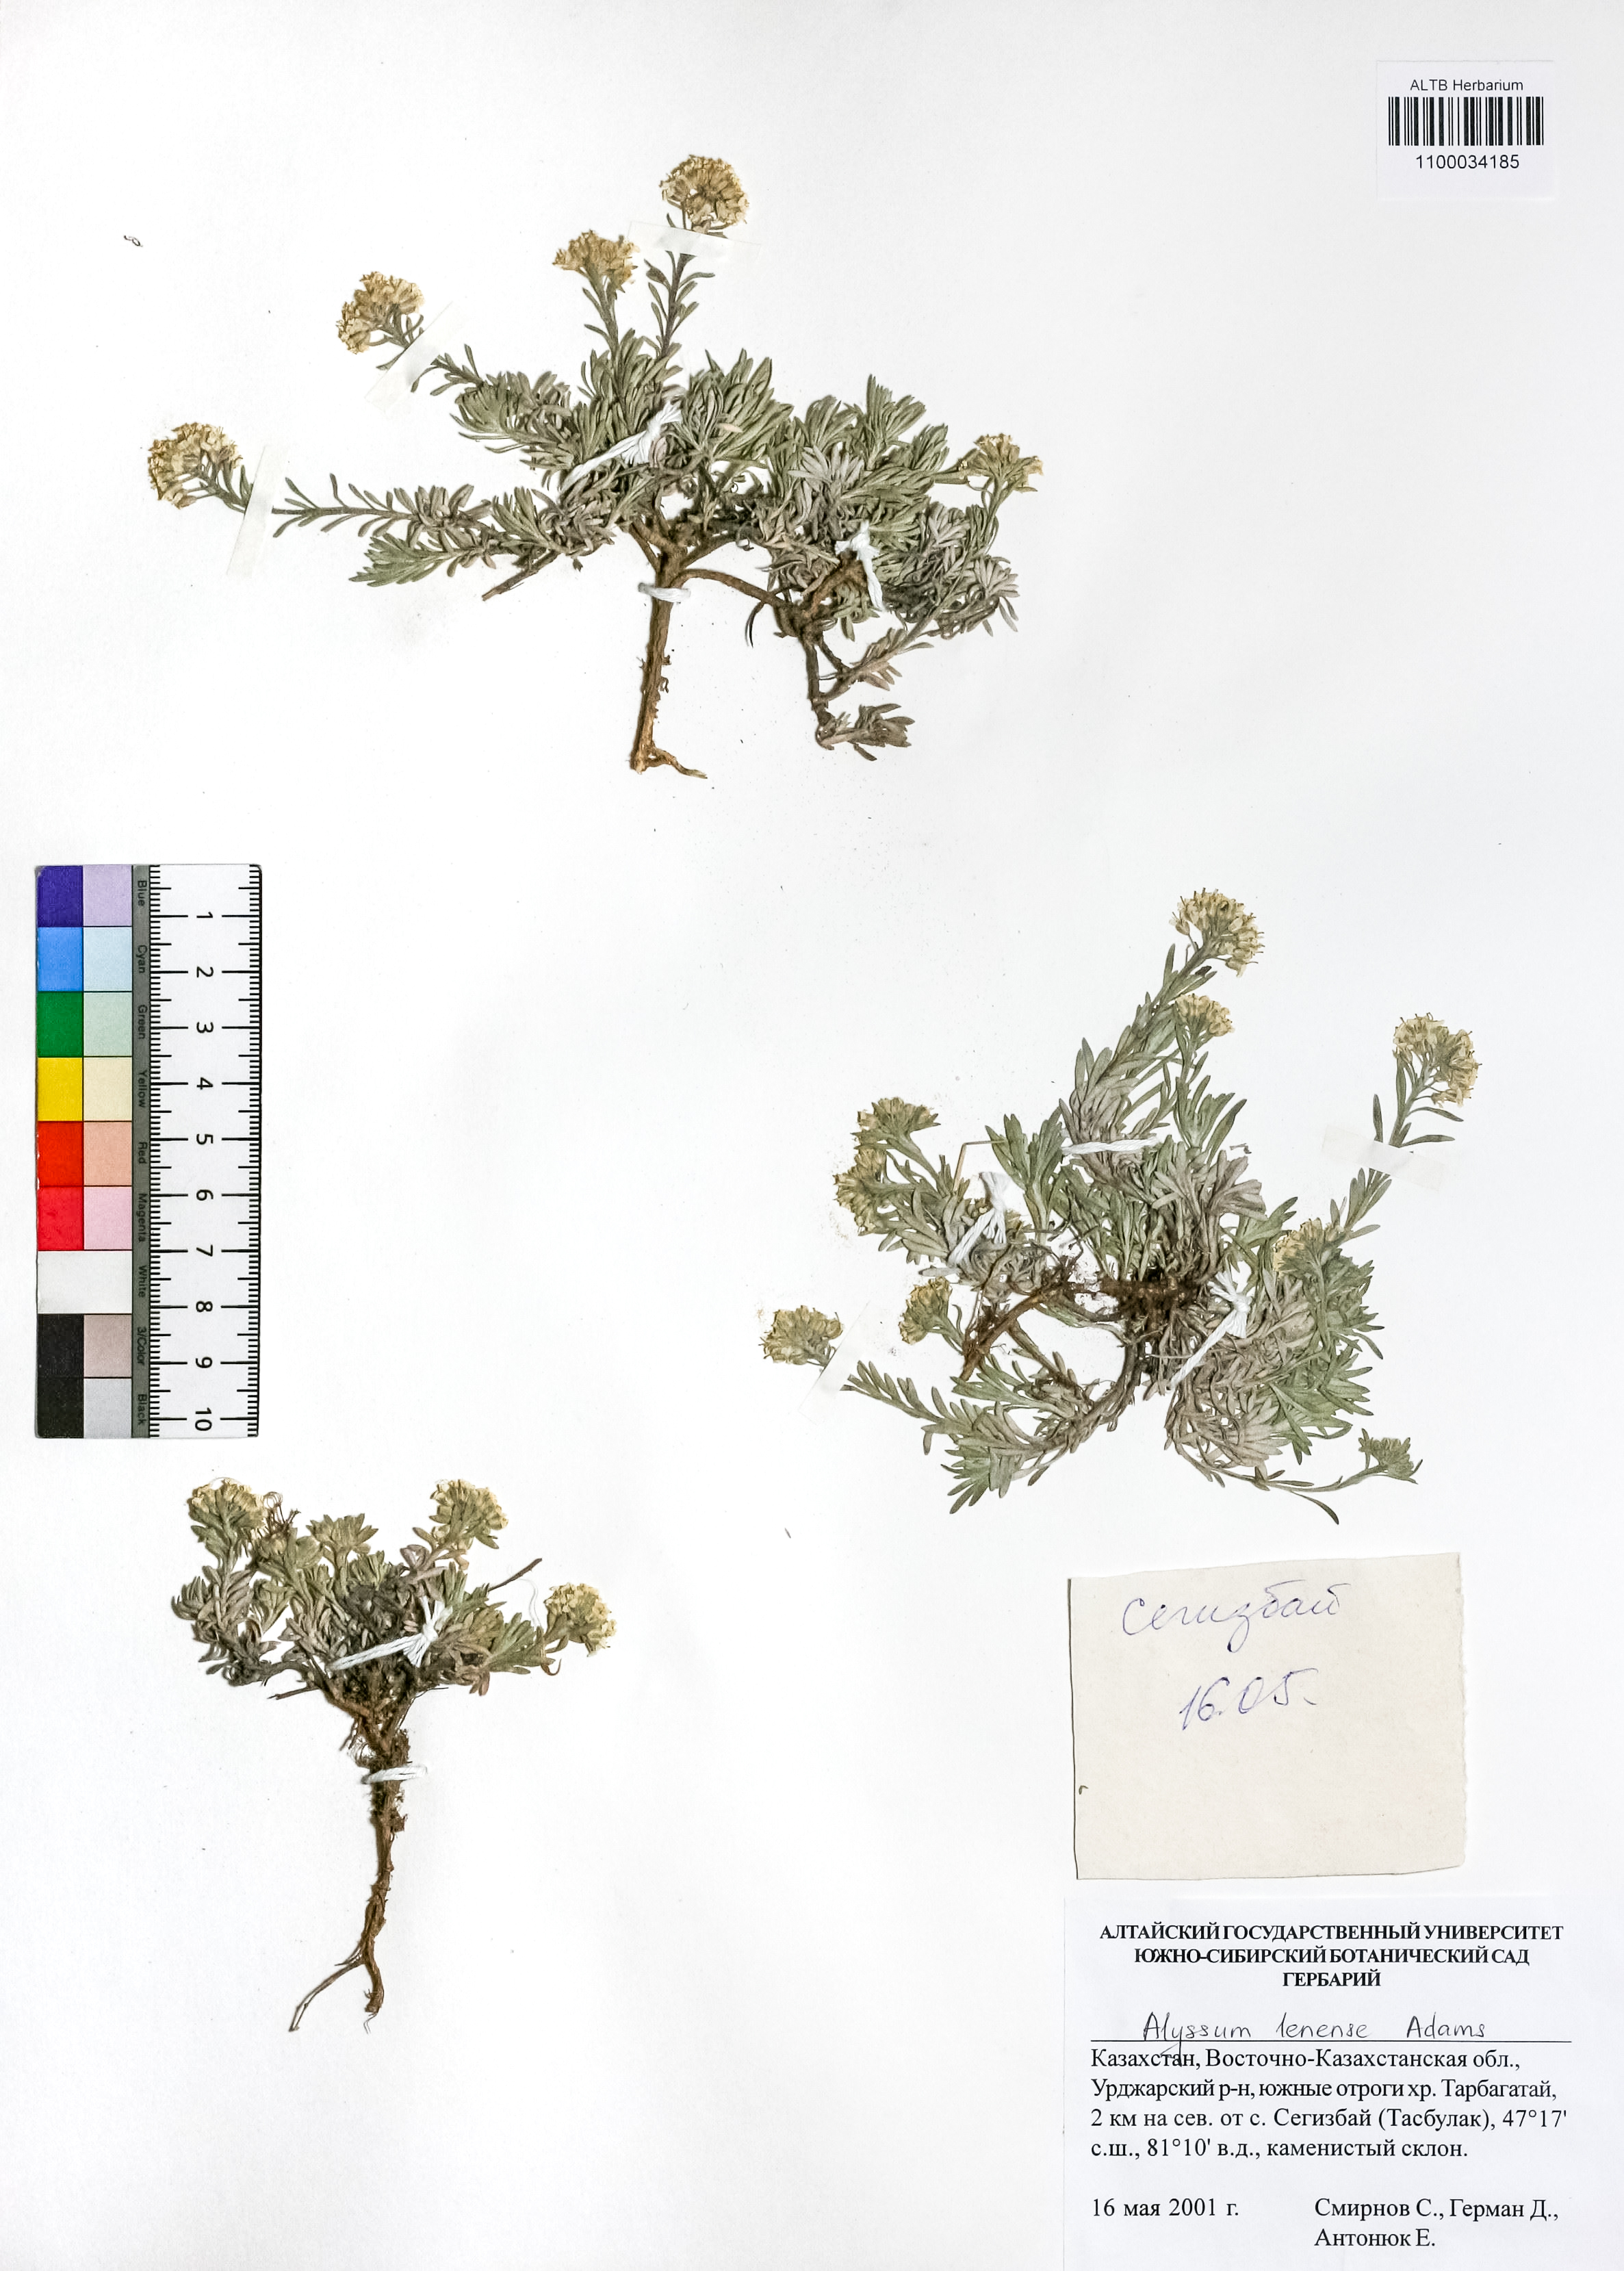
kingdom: Plantae
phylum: Tracheophyta
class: Magnoliopsida
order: Brassicales
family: Brassicaceae
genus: Alyssum
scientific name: Alyssum lenense
